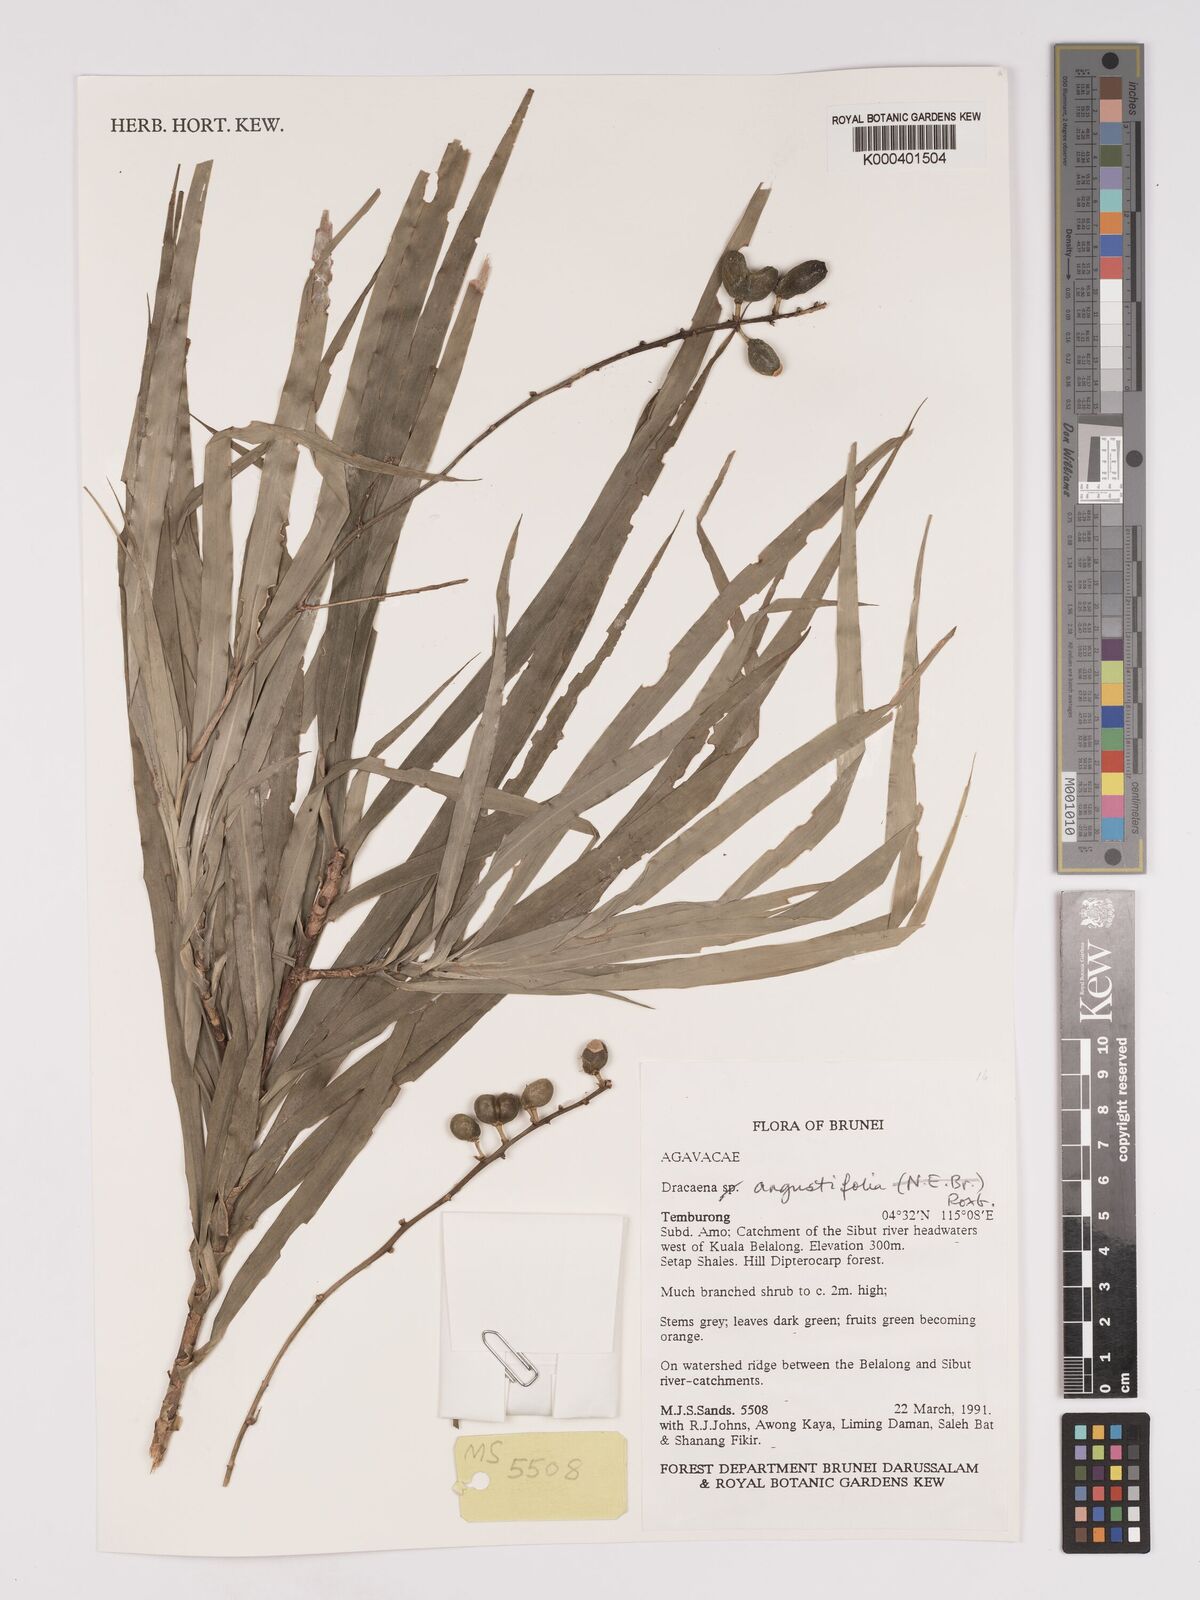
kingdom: Plantae
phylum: Tracheophyta
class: Liliopsida
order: Asparagales
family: Asparagaceae
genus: Dracaena
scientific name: Dracaena angustifolia
